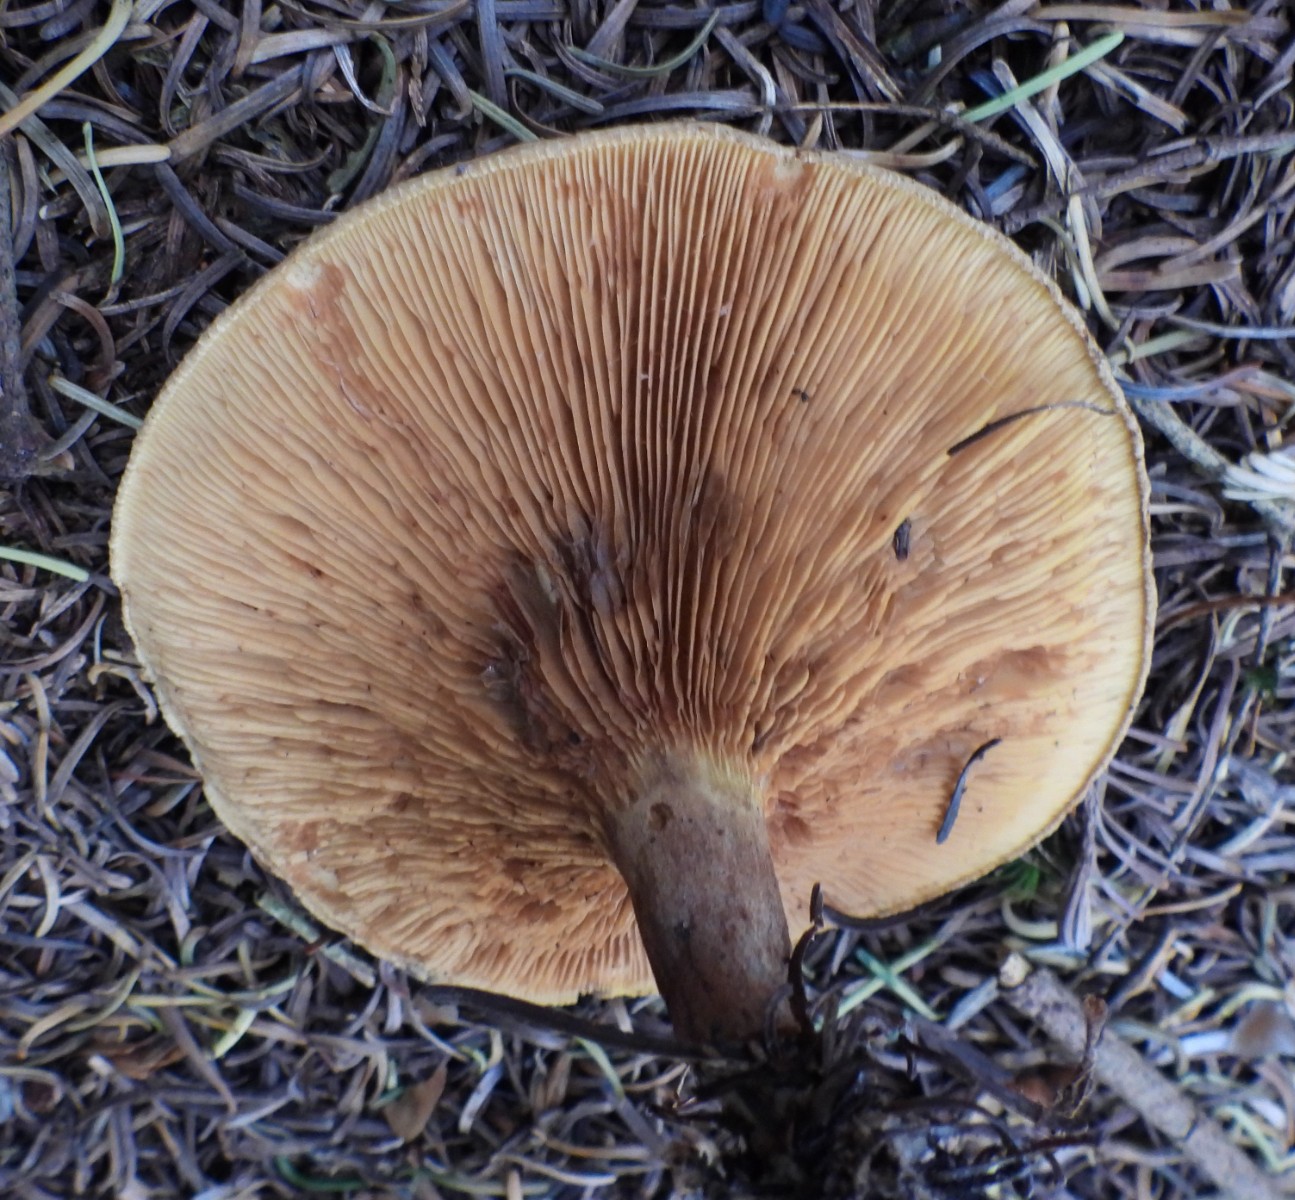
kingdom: Fungi
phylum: Basidiomycota
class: Agaricomycetes
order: Boletales
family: Paxillaceae
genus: Paxillus
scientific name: Paxillus involutus
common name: almindelig netbladhat
